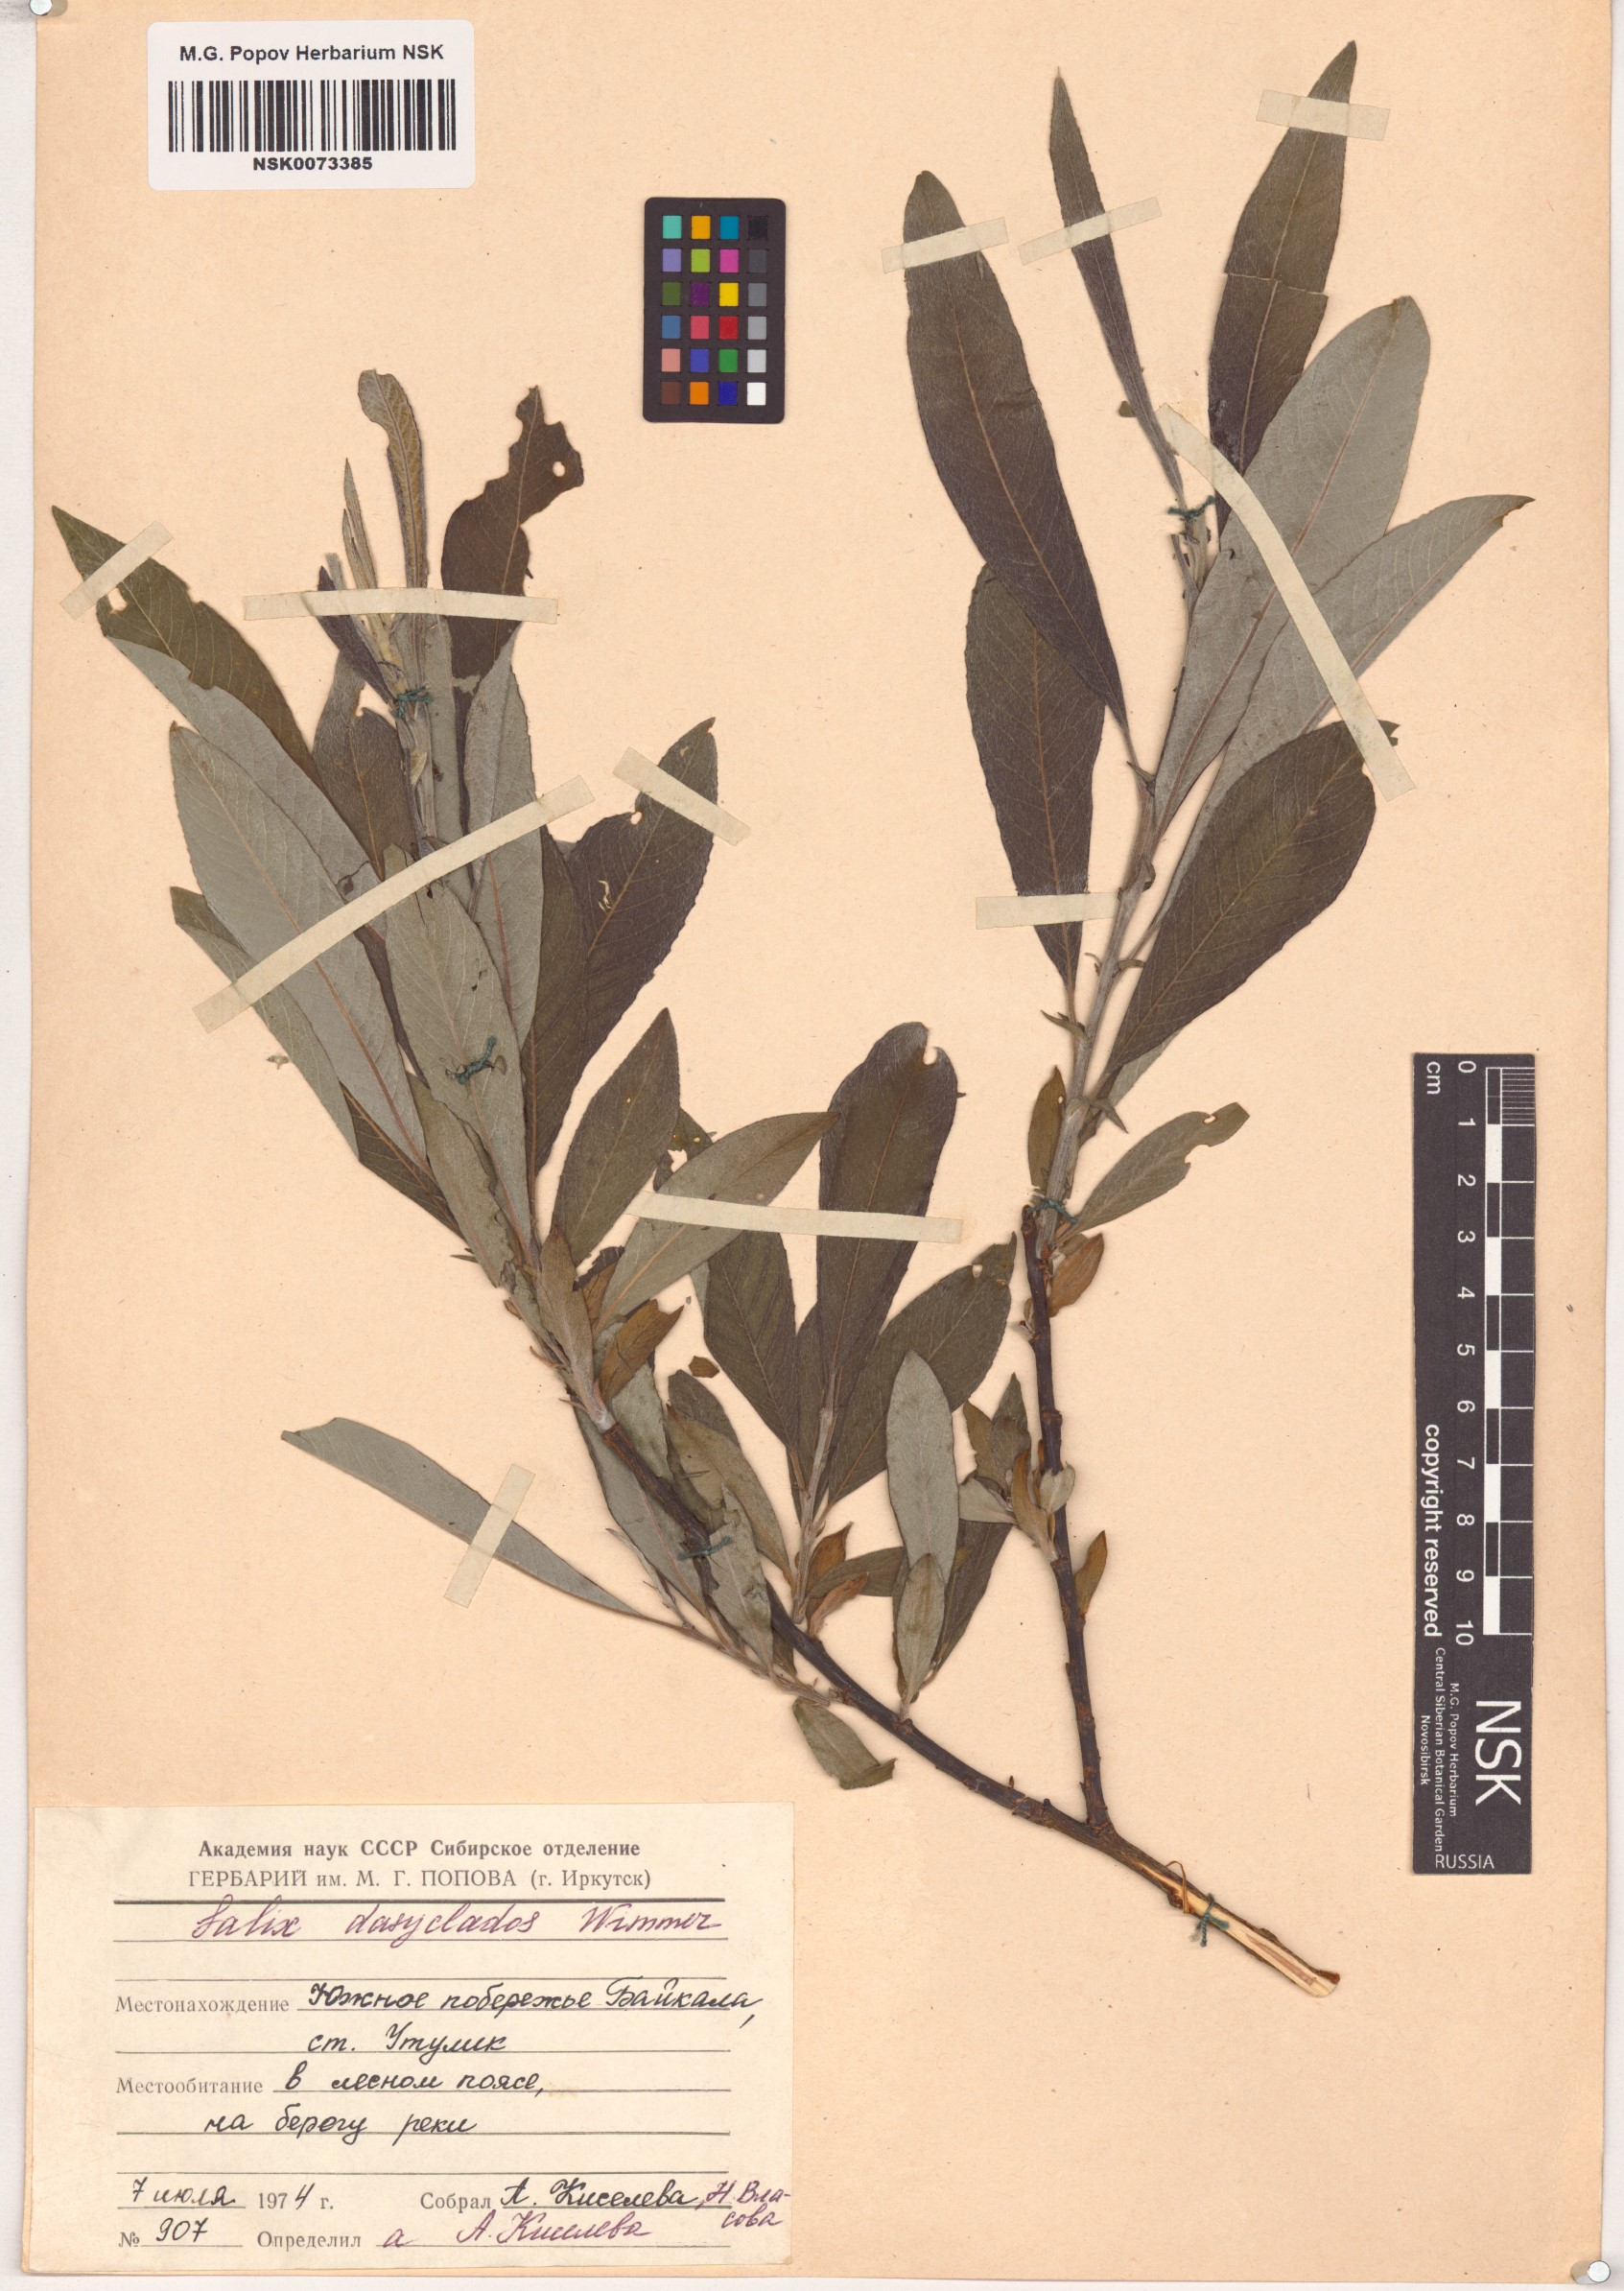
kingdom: Plantae
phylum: Tracheophyta
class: Magnoliopsida
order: Malpighiales
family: Salicaceae
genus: Salix
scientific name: Salix gmelinii
